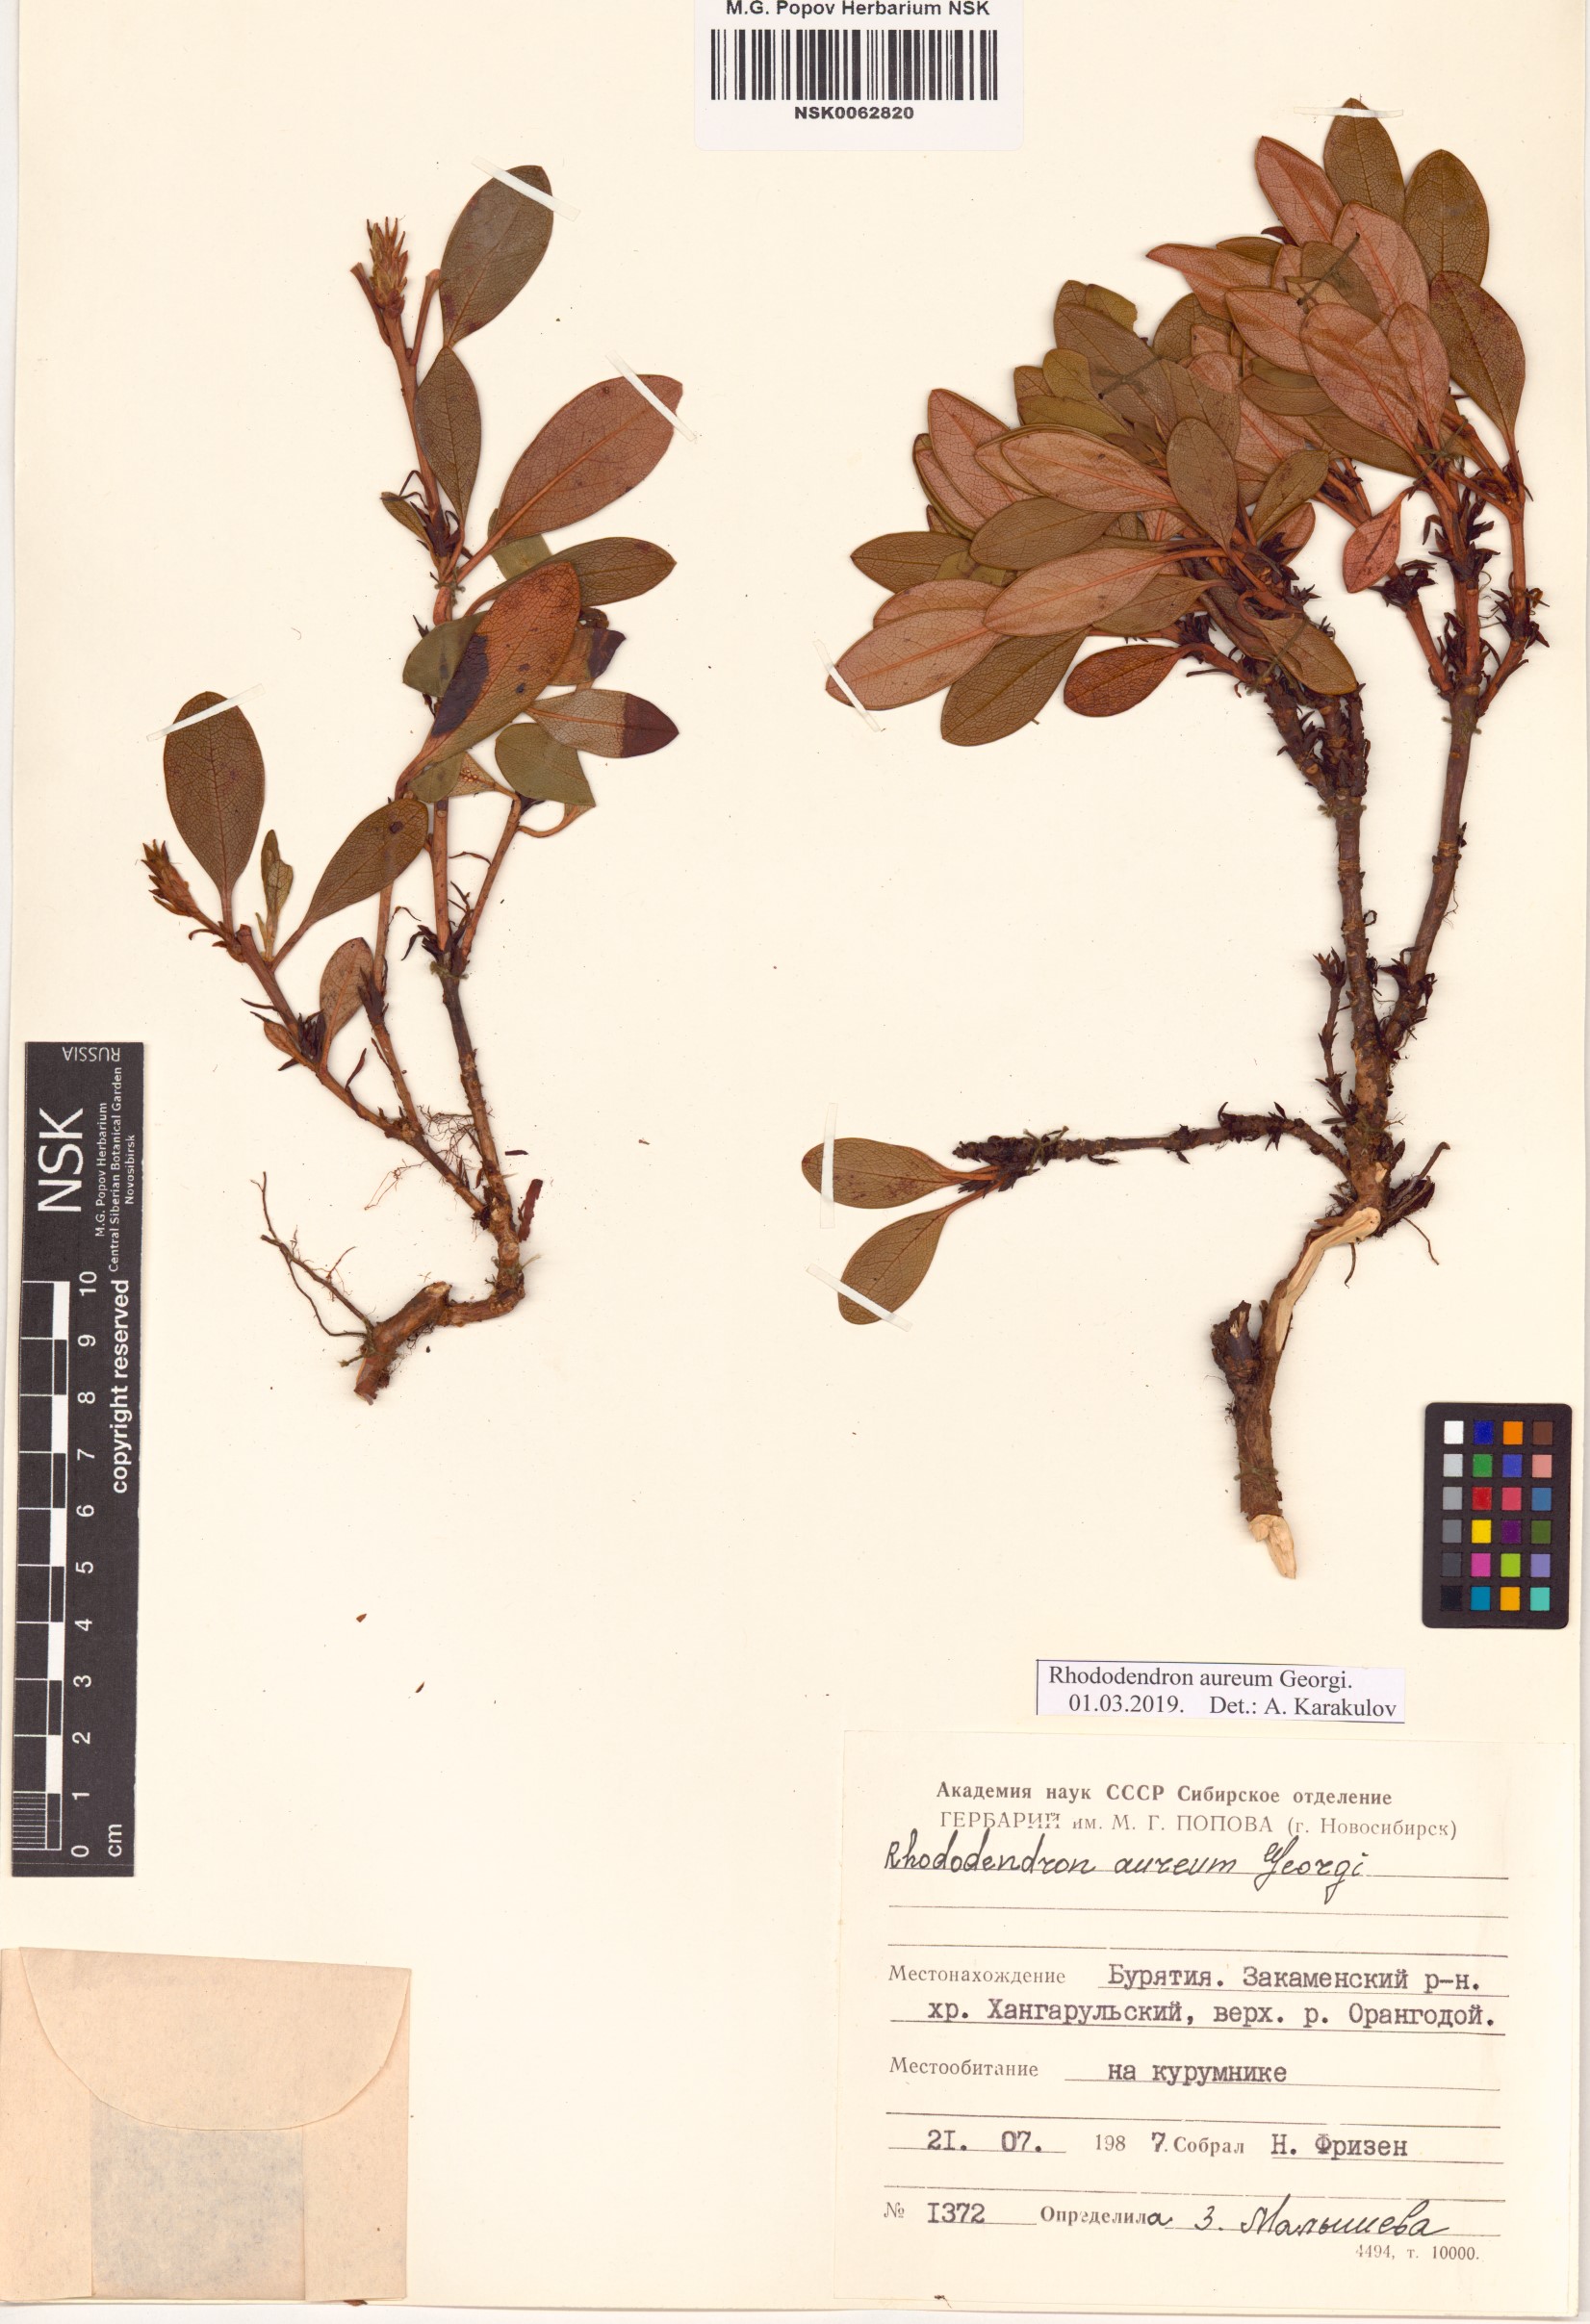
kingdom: Plantae
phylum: Tracheophyta
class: Magnoliopsida
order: Ericales
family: Ericaceae
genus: Rhododendron
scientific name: Rhododendron aureum
